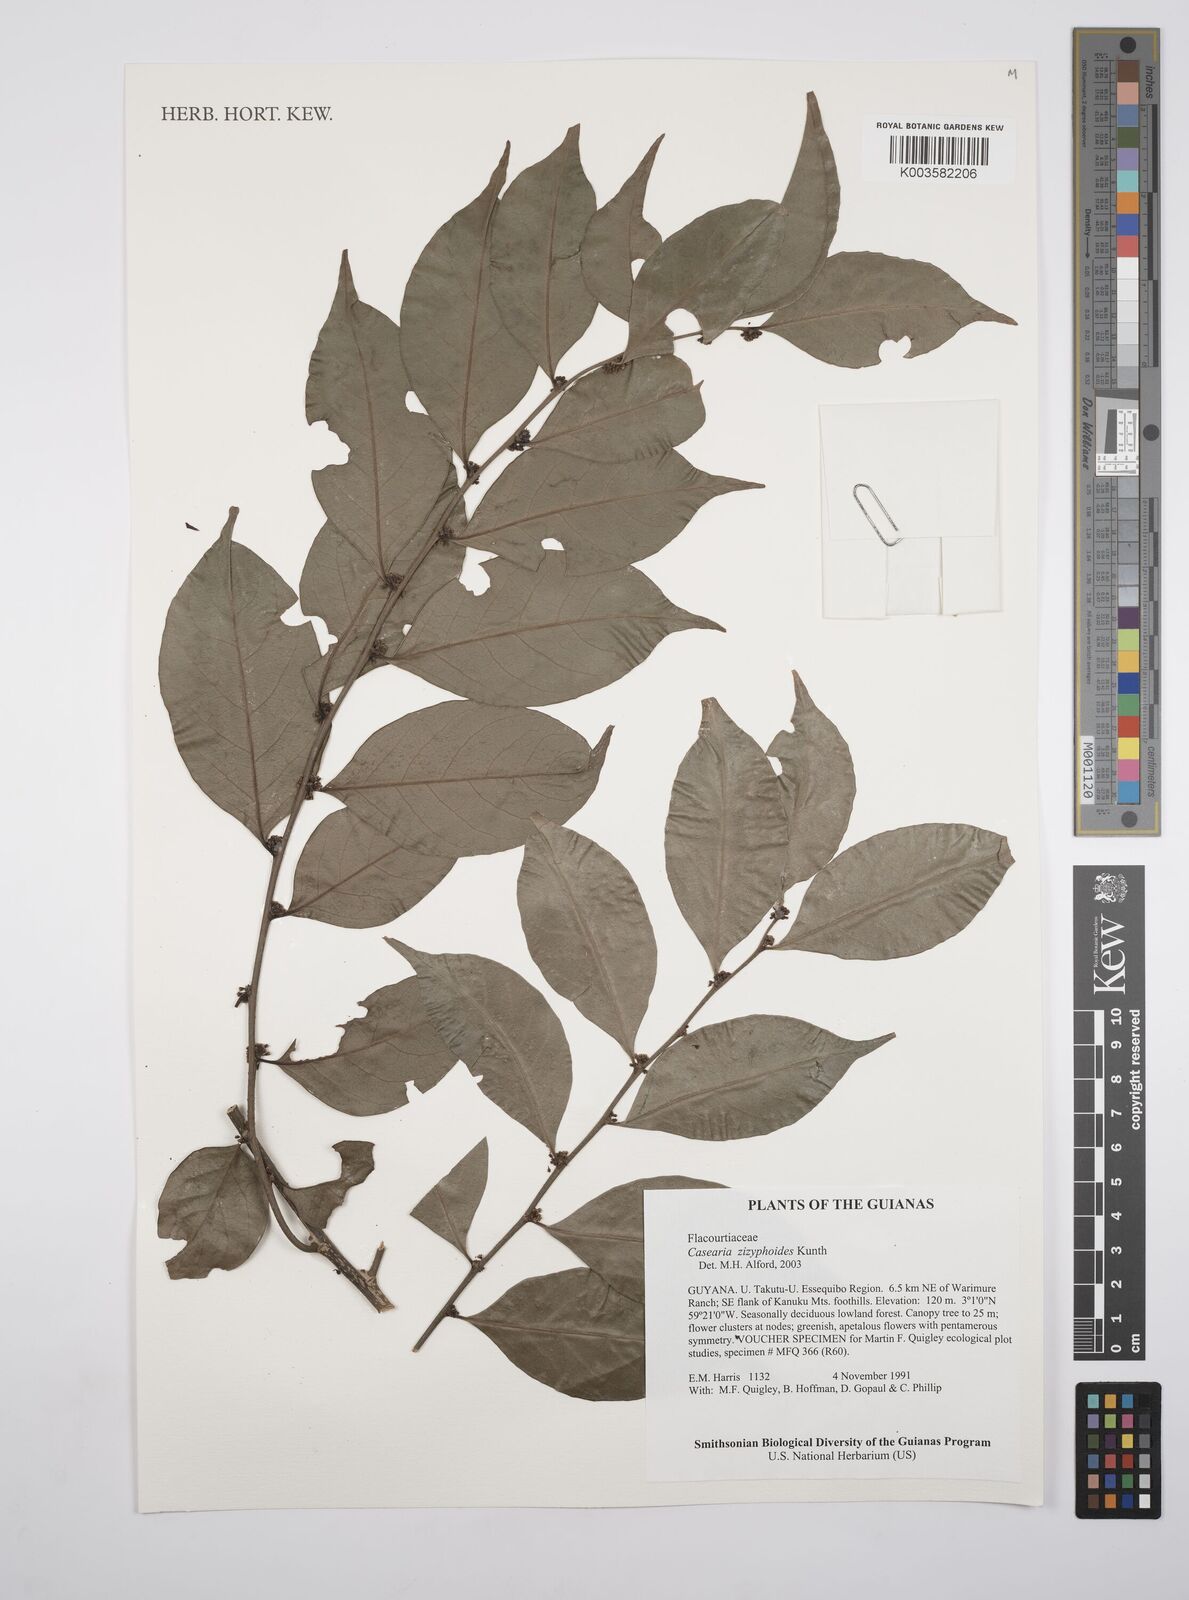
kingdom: Plantae
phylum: Tracheophyta
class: Magnoliopsida
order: Malpighiales
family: Salicaceae
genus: Casearia
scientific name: Casearia zizyphoides
